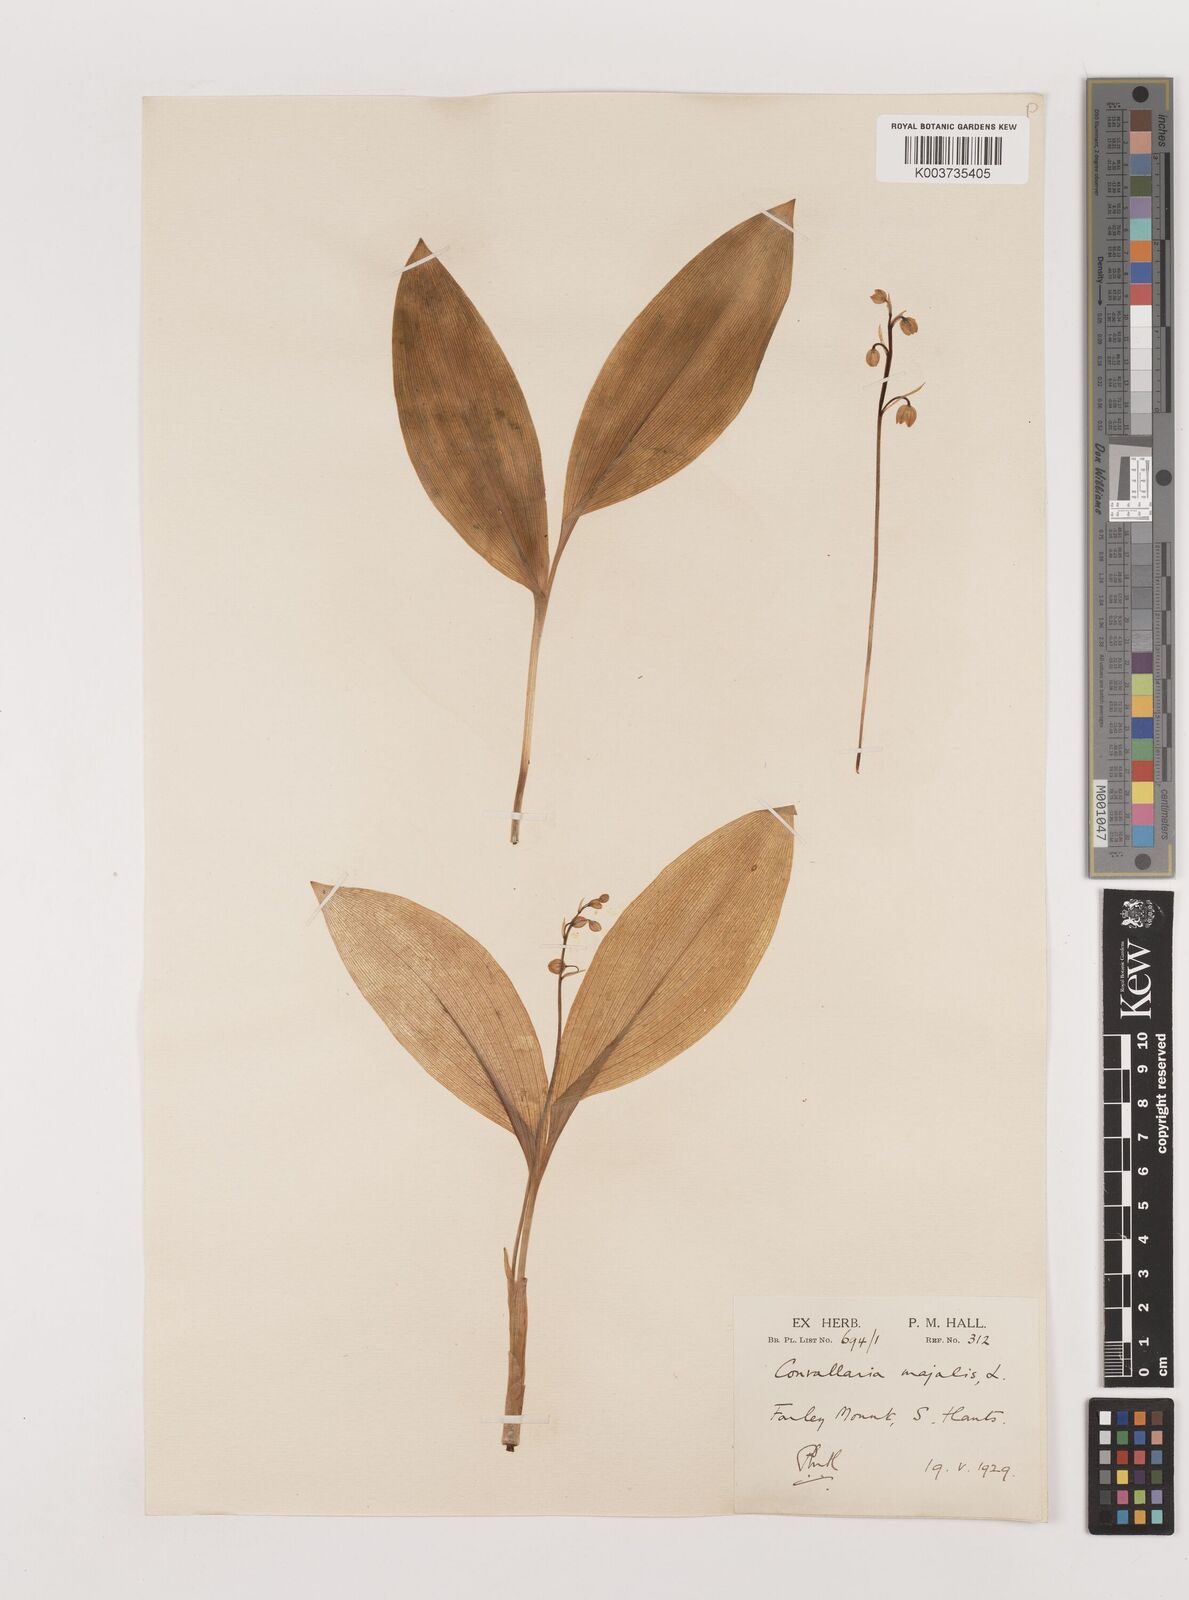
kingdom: Plantae
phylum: Tracheophyta
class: Liliopsida
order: Asparagales
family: Asparagaceae
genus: Convallaria
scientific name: Convallaria majalis
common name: Lily-of-the-valley
